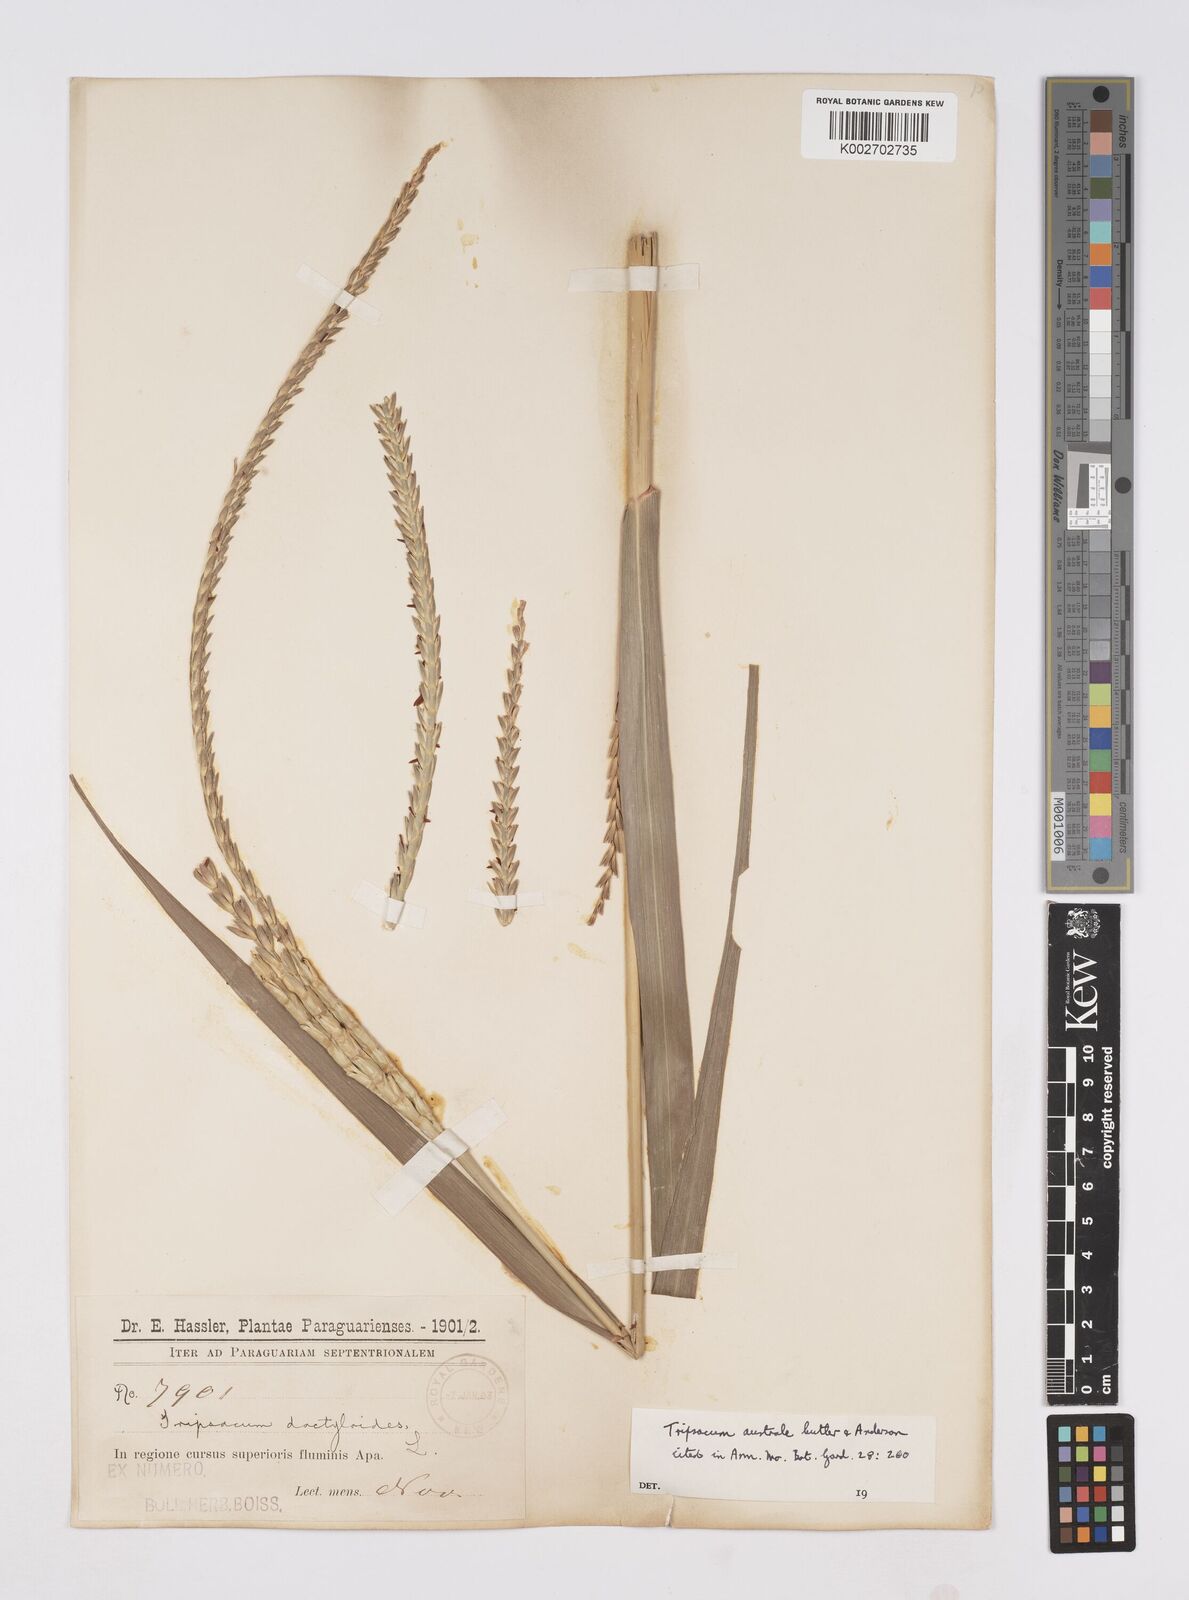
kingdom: Plantae
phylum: Tracheophyta
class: Liliopsida
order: Poales
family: Poaceae
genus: Tripsacum
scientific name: Tripsacum australe
